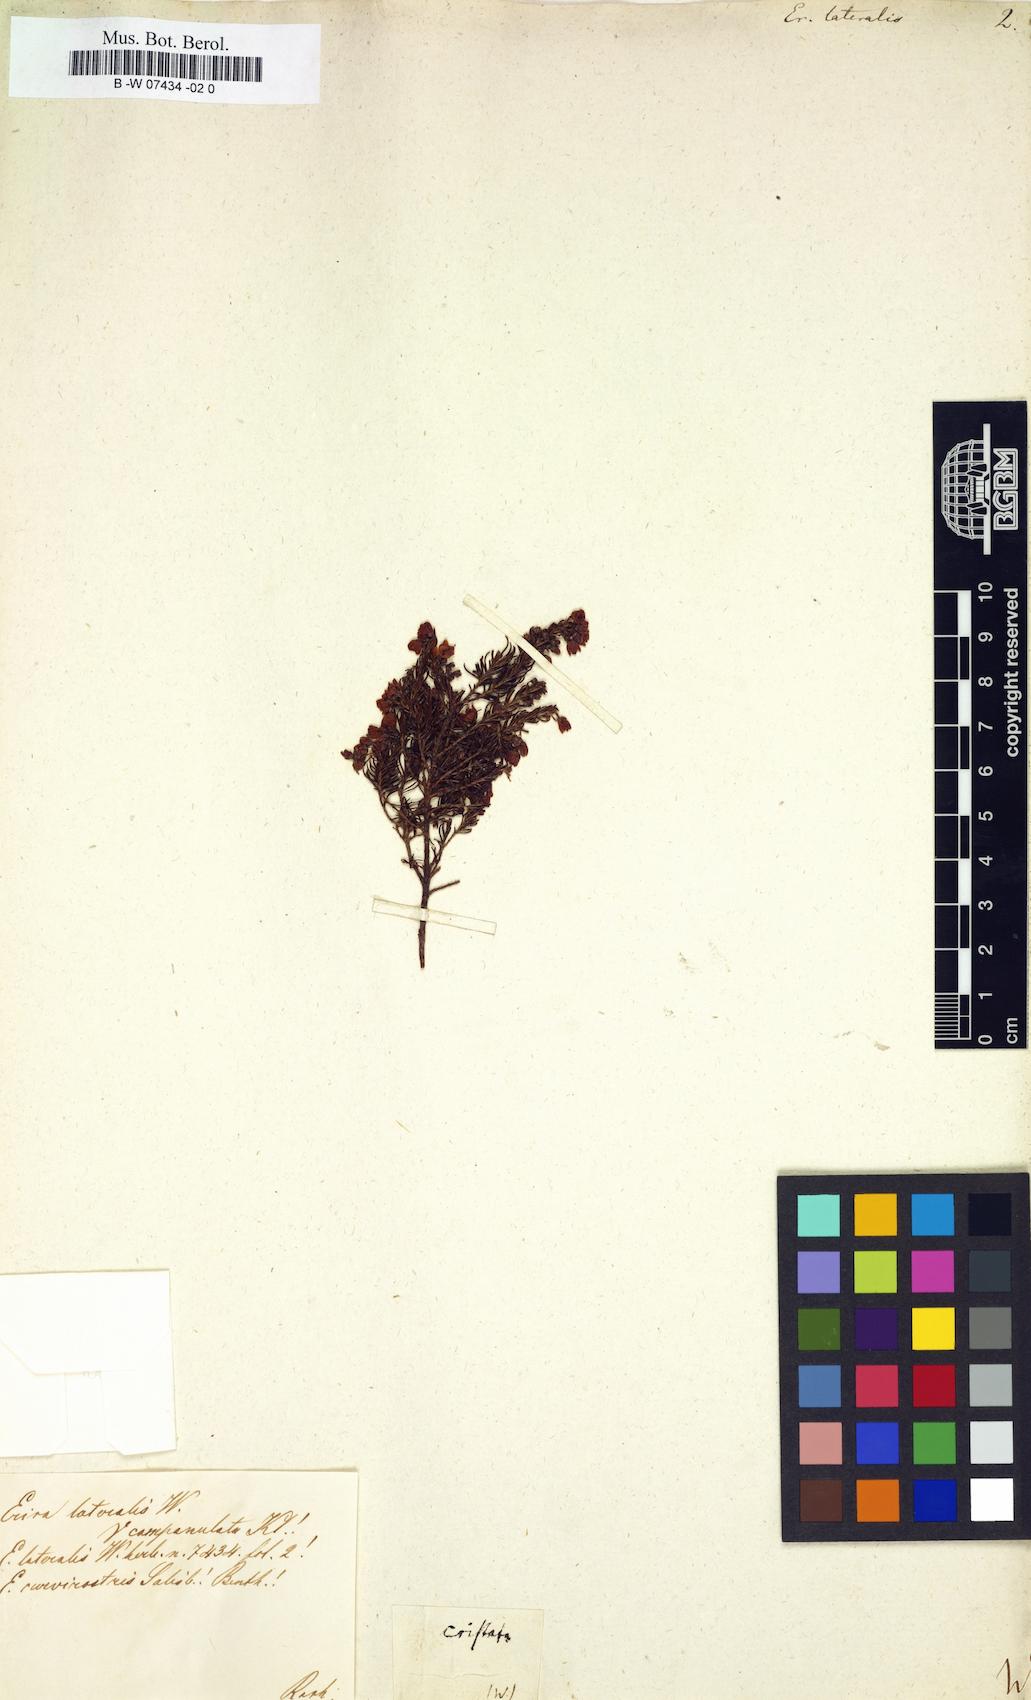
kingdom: Plantae
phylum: Tracheophyta
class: Magnoliopsida
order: Ericales
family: Ericaceae
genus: Erica
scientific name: Erica lateralis
